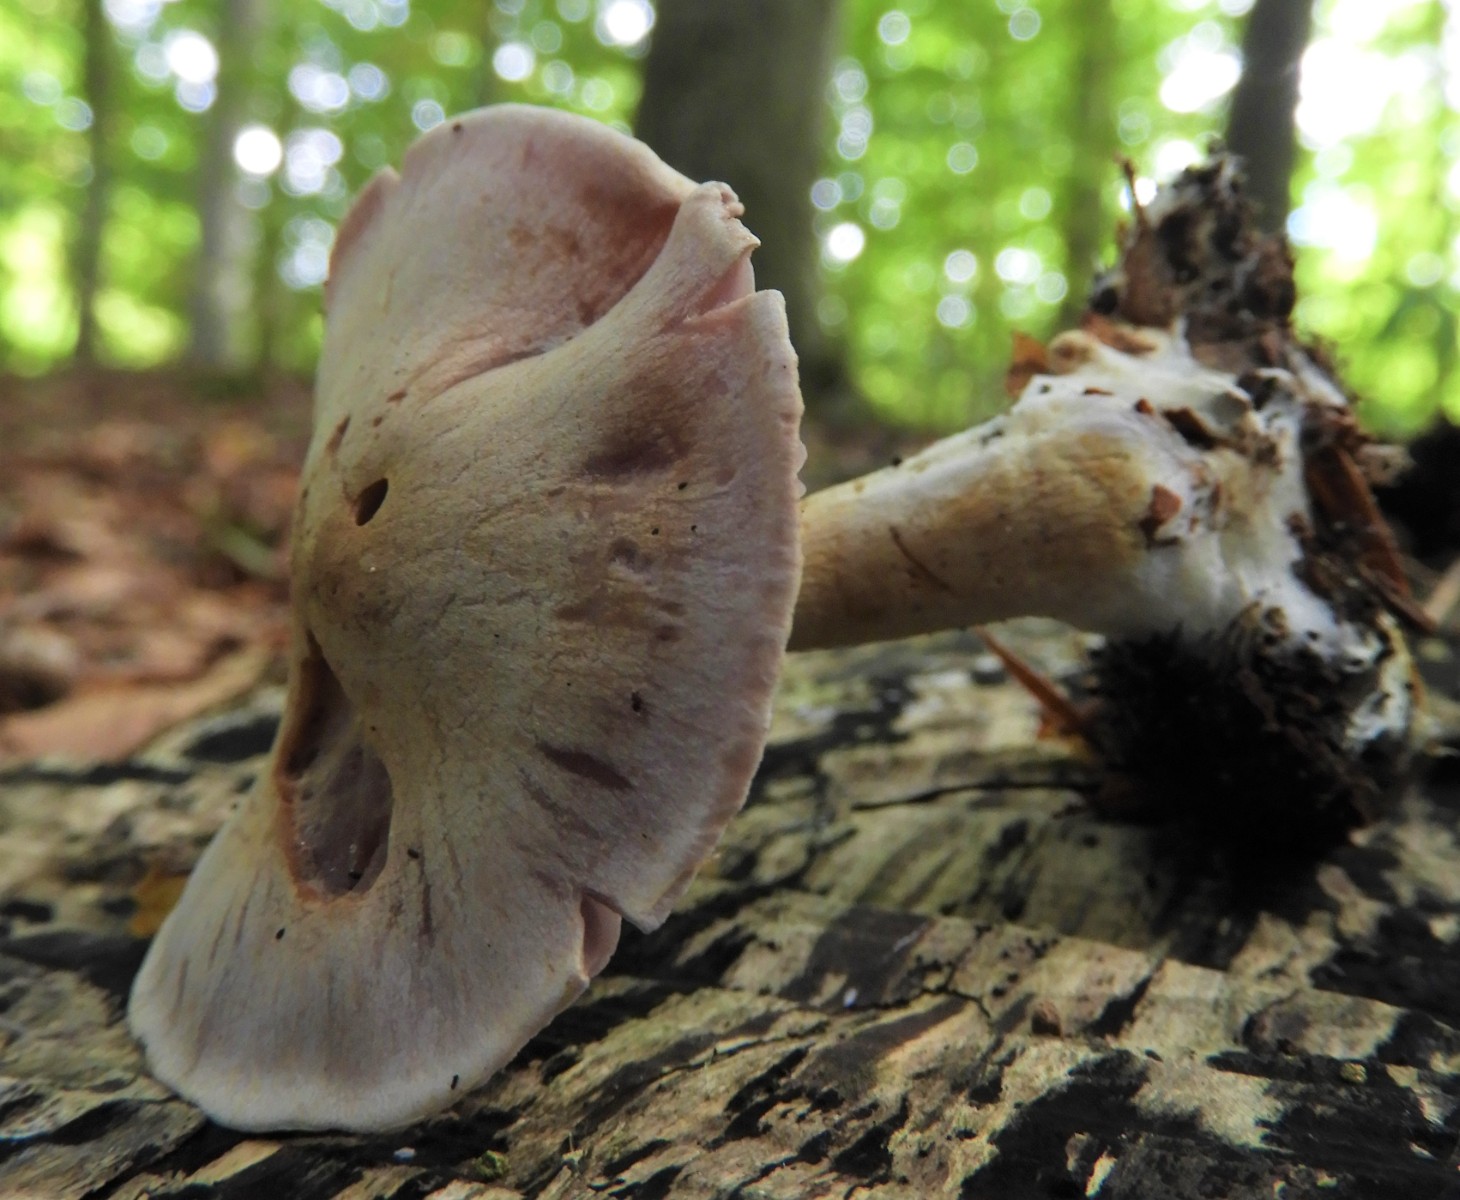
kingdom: Fungi
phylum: Basidiomycota
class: Agaricomycetes
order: Agaricales
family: Cortinariaceae
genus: Cortinarius
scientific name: Cortinarius
